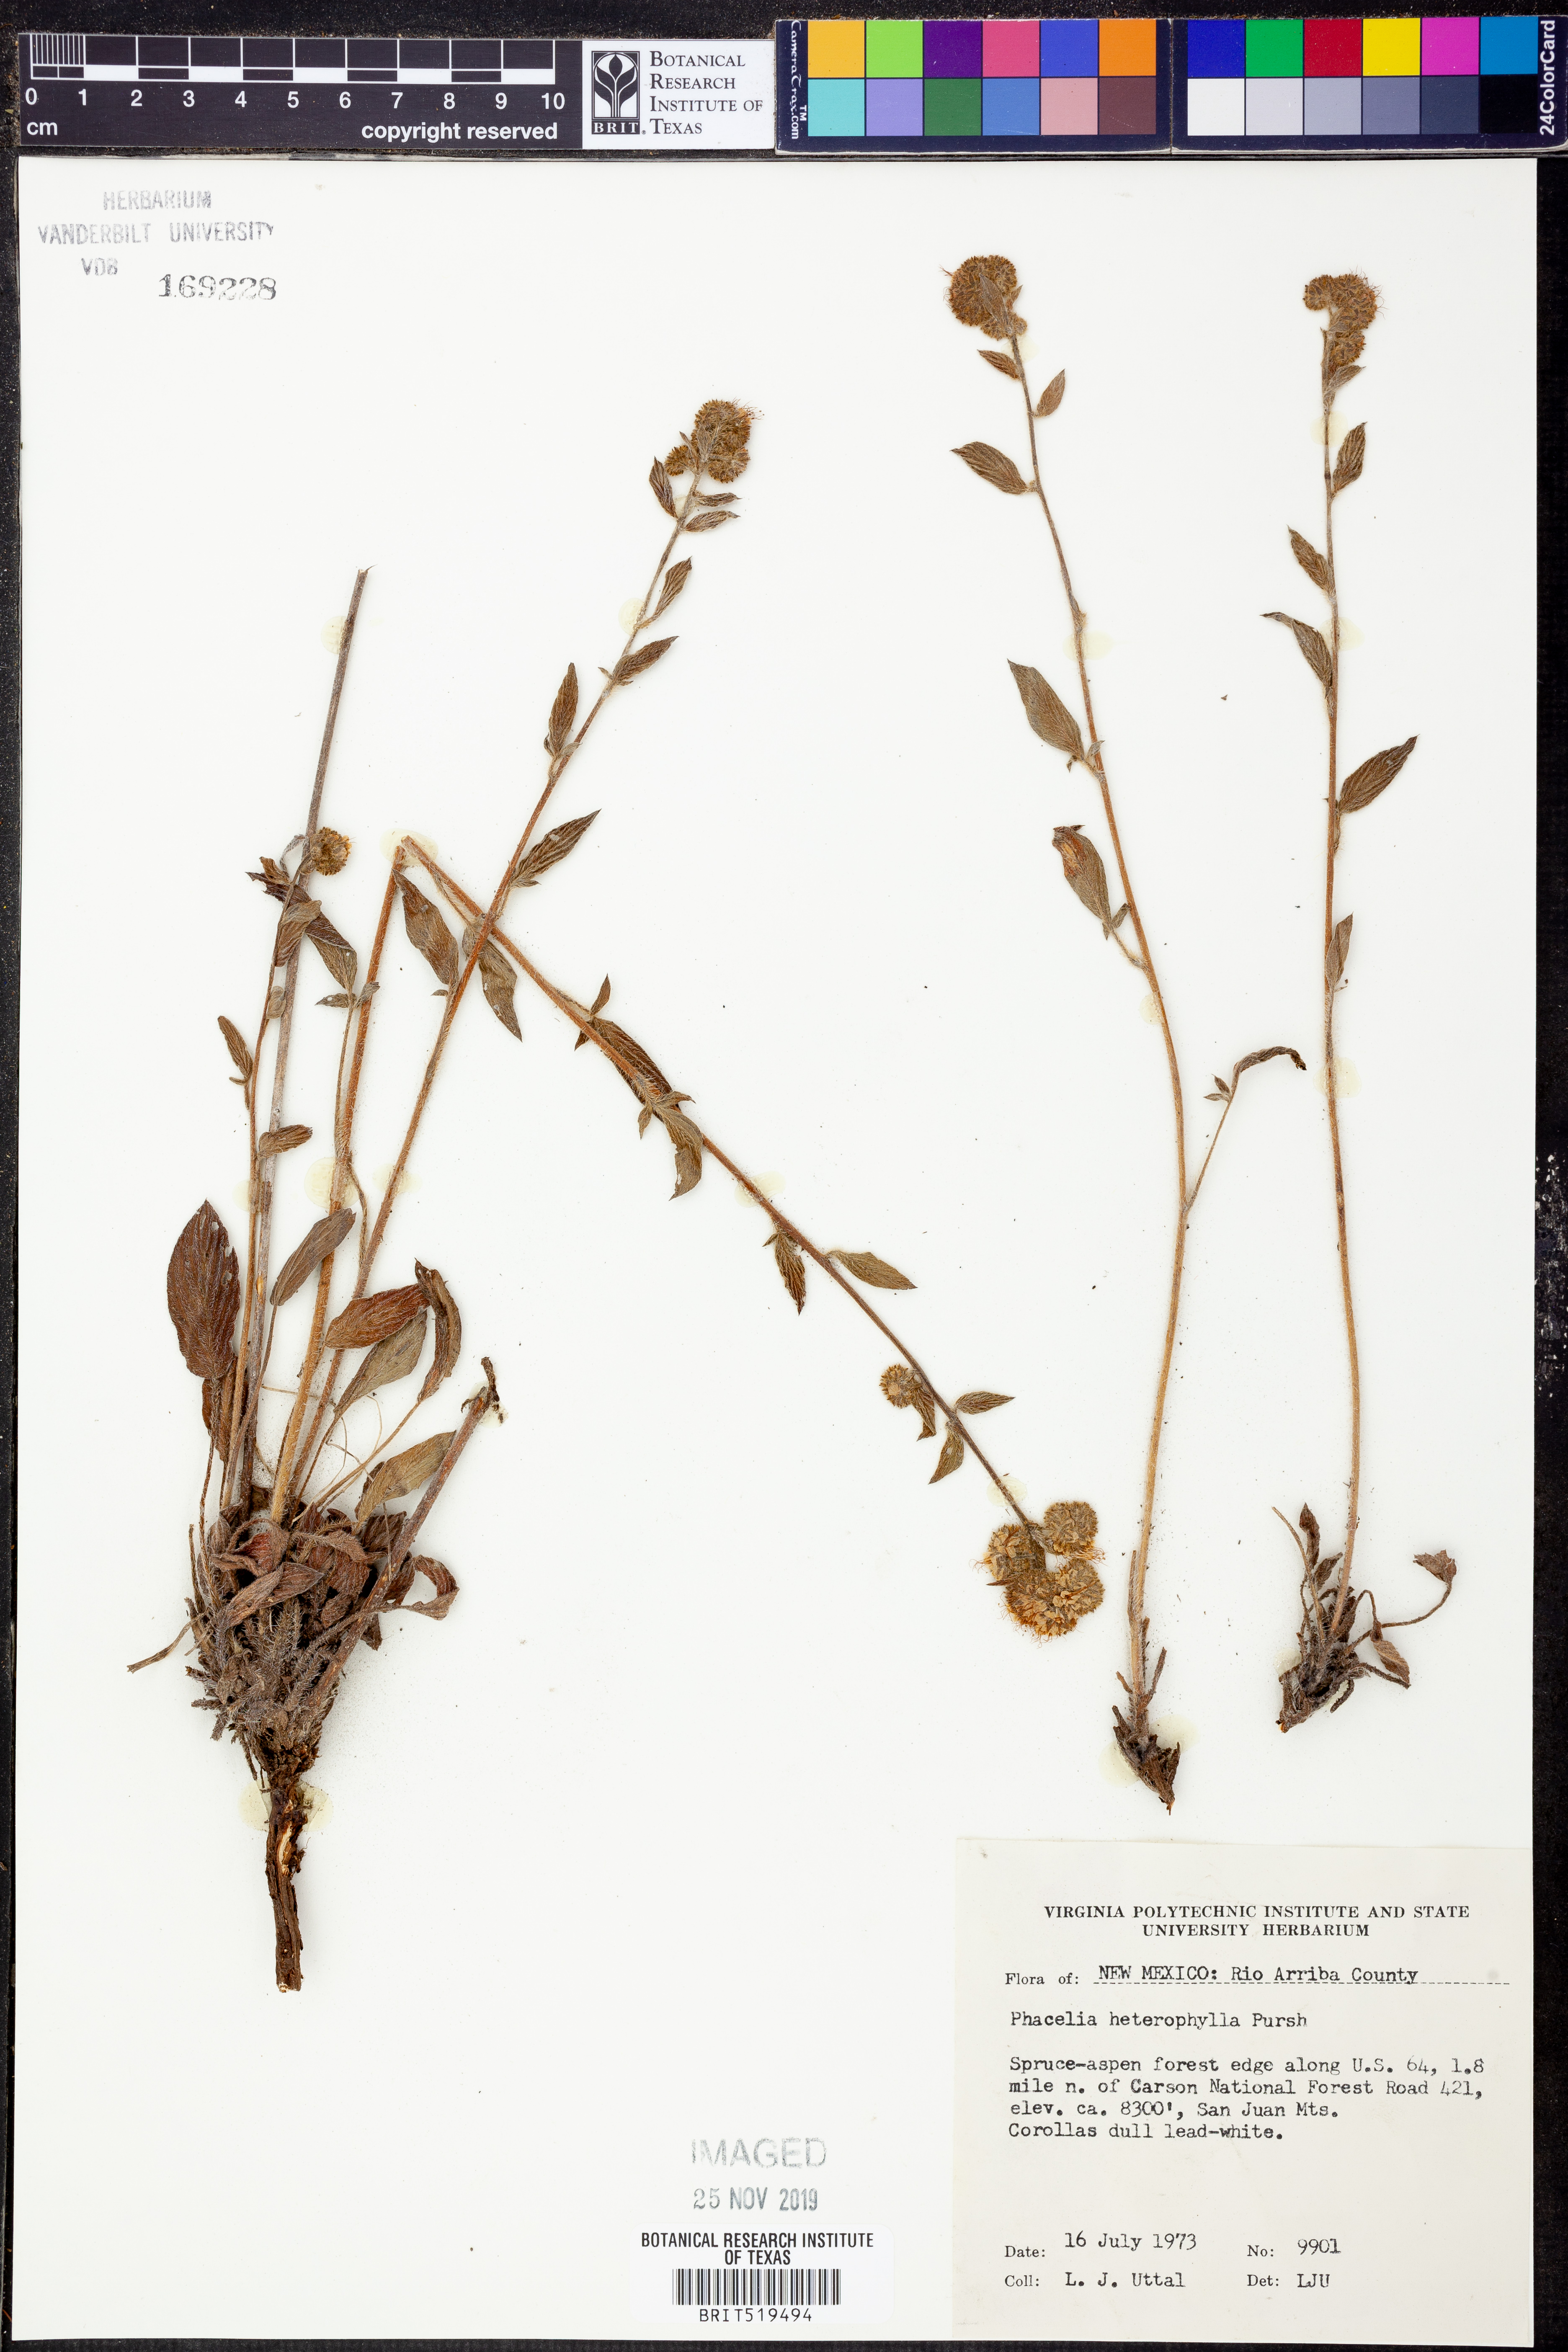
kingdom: Plantae
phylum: Tracheophyta
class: Magnoliopsida
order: Boraginales
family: Hydrophyllaceae
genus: Phacelia
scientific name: Phacelia heterophylla
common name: Variable-leaved phacelia
